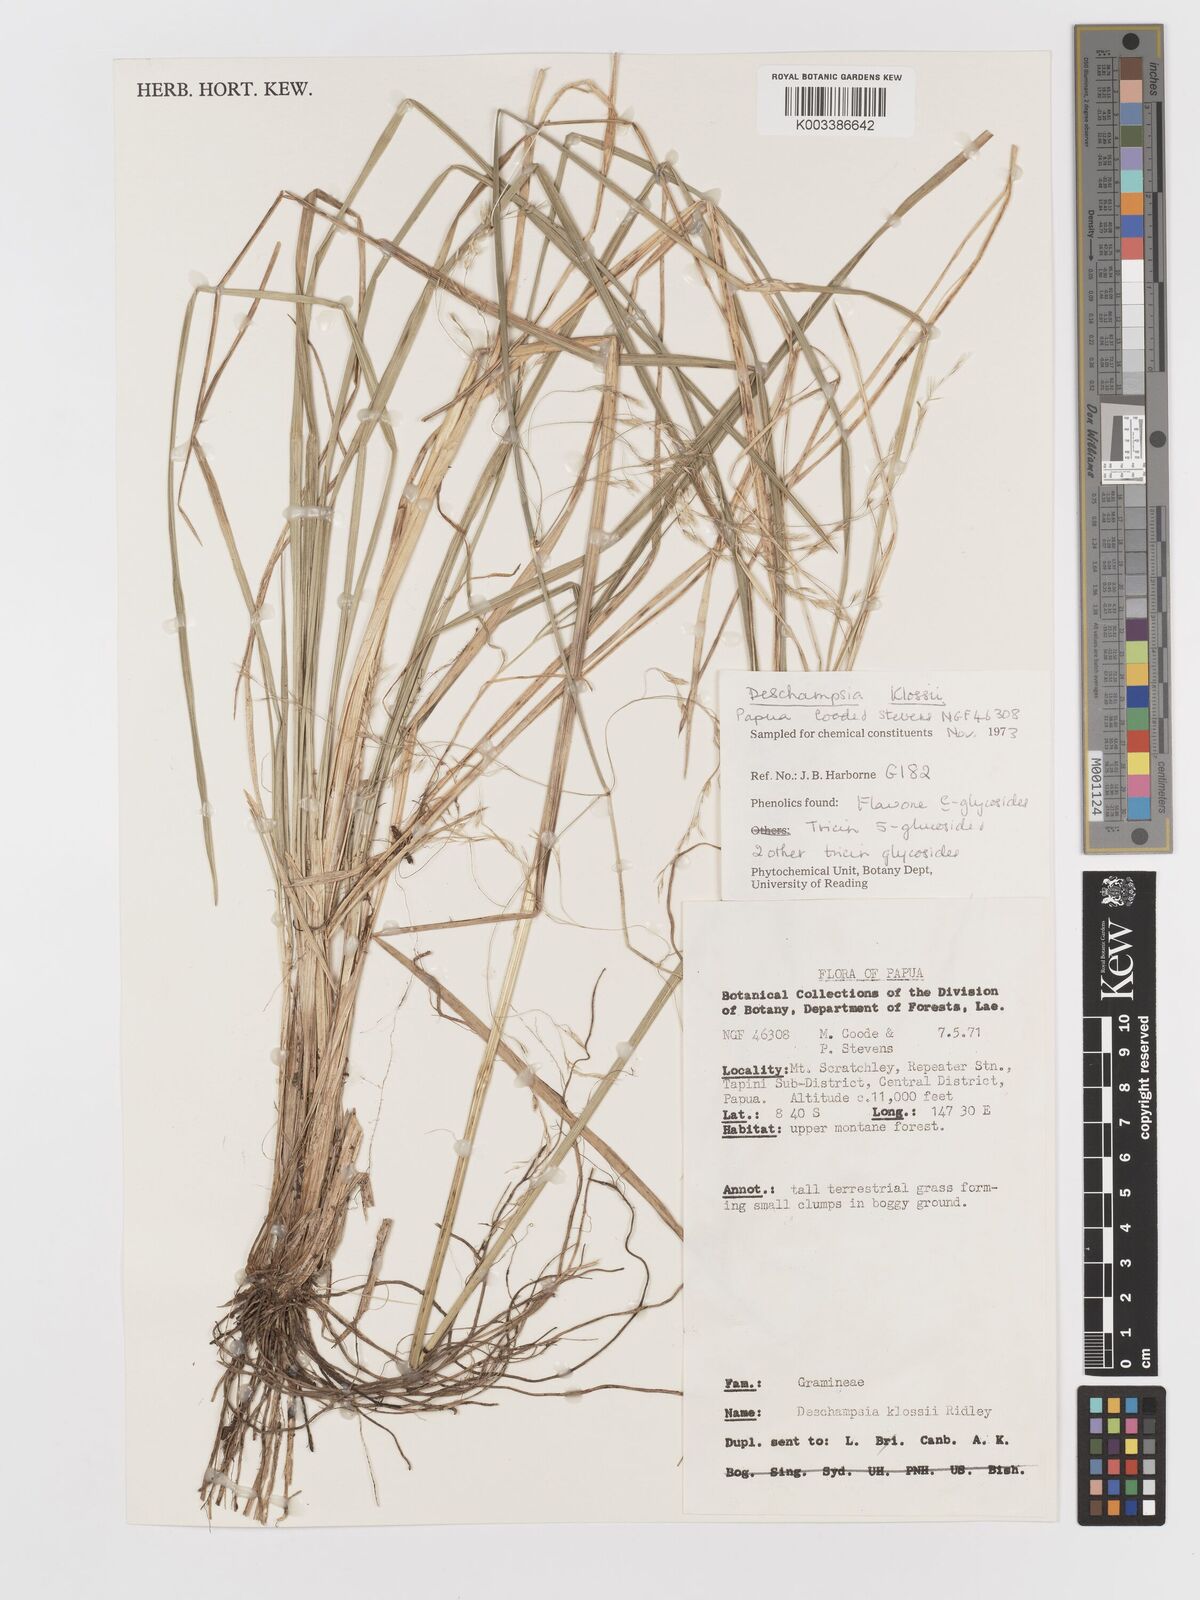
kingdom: Plantae
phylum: Tracheophyta
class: Liliopsida
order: Poales
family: Poaceae
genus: Deschampsia
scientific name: Deschampsia klossii
